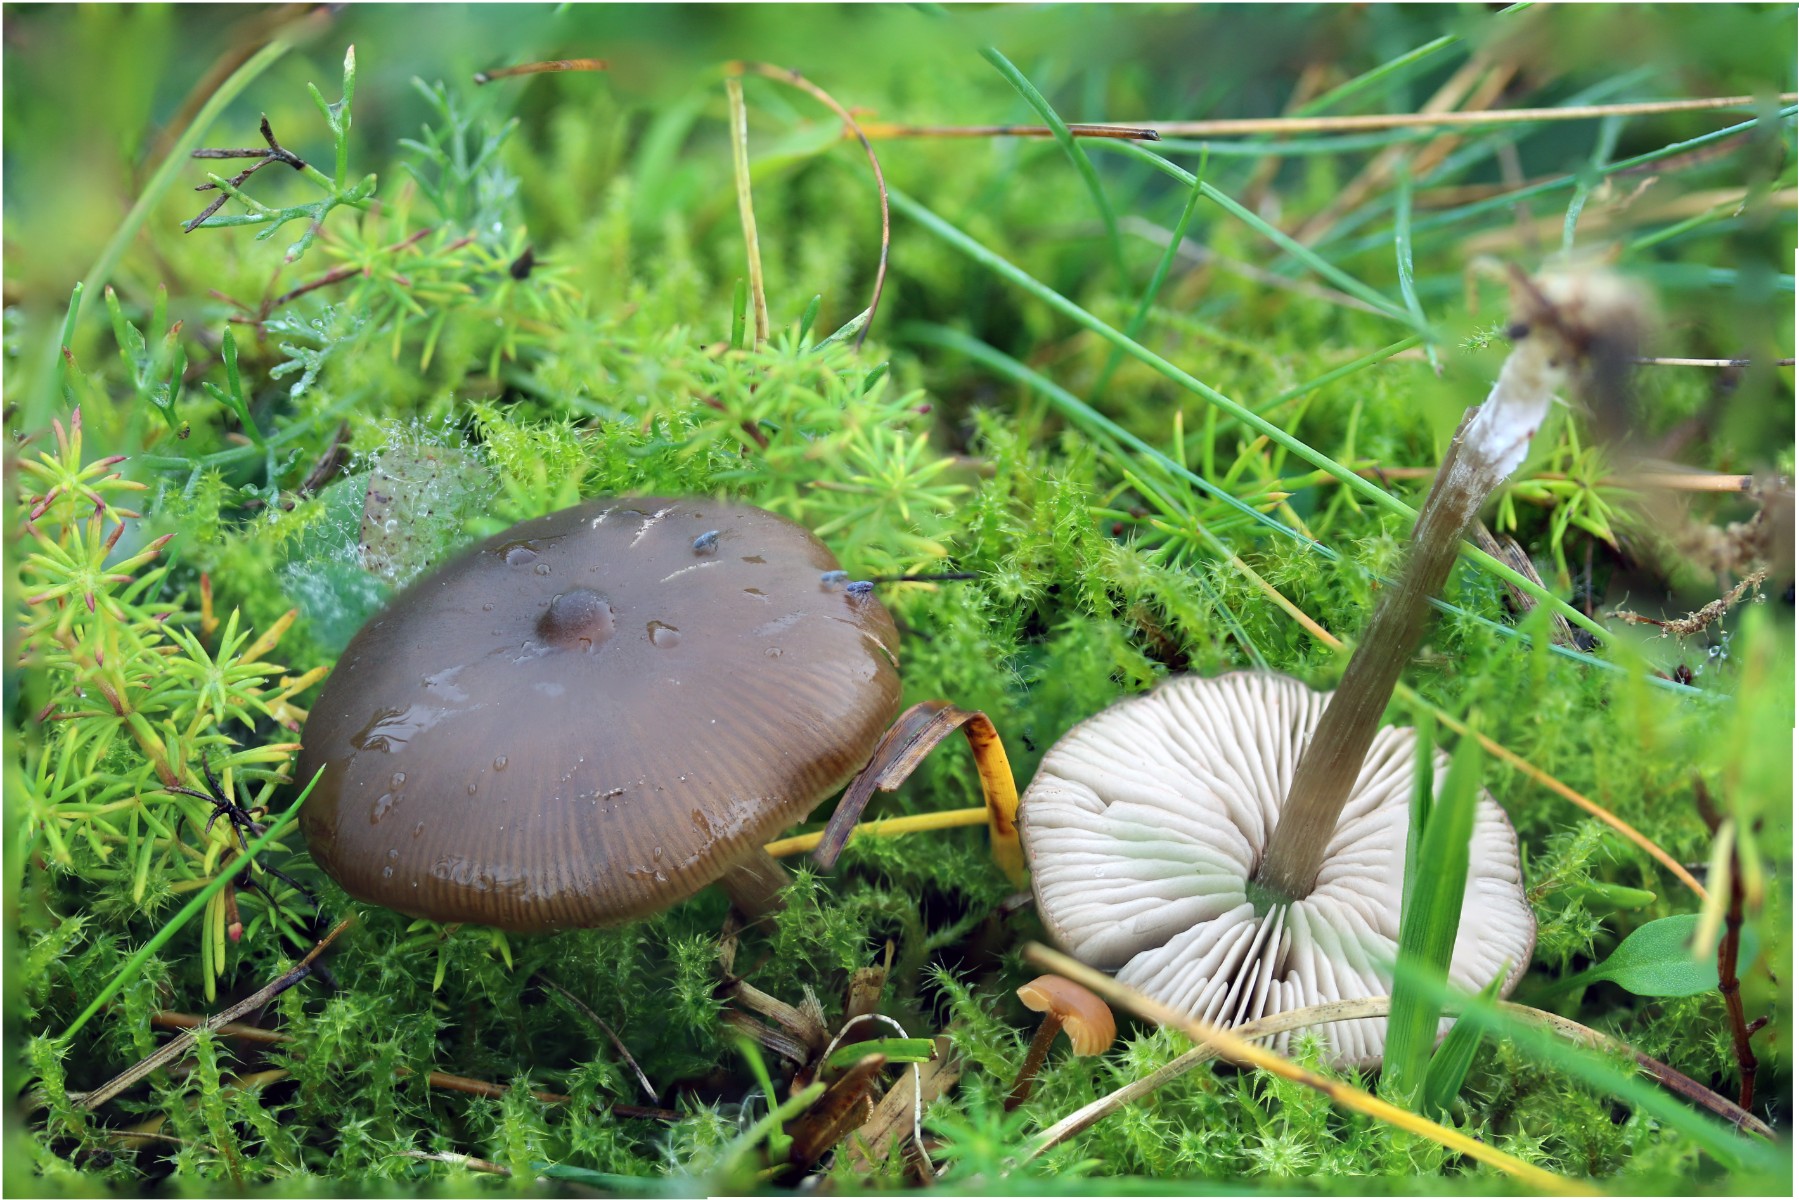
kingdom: Fungi
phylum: Basidiomycota
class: Agaricomycetes
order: Agaricales
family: Entolomataceae
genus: Entoloma
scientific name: Entoloma
